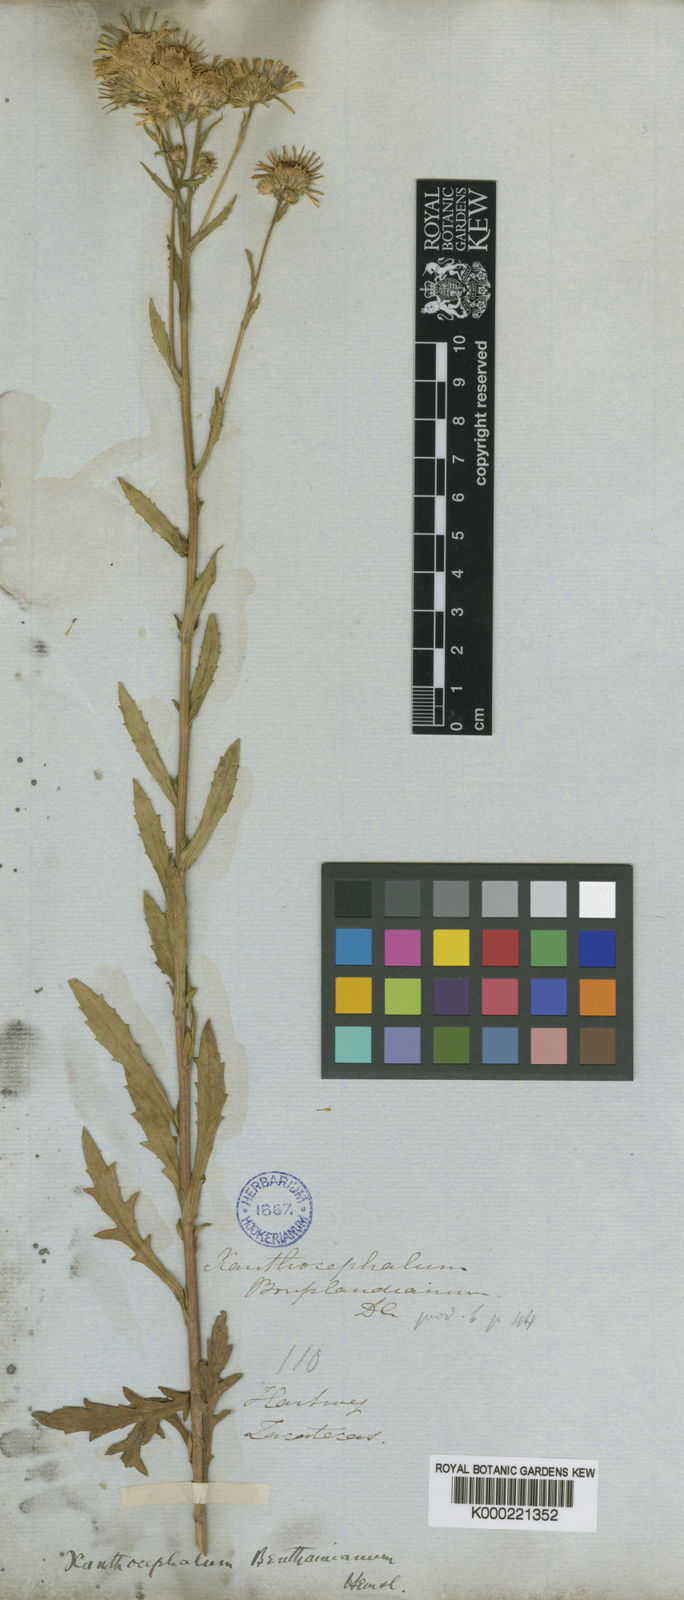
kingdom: Plantae
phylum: Tracheophyta
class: Magnoliopsida
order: Asterales
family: Asteraceae
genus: Xanthocephalum
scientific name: Xanthocephalum benthamianum
